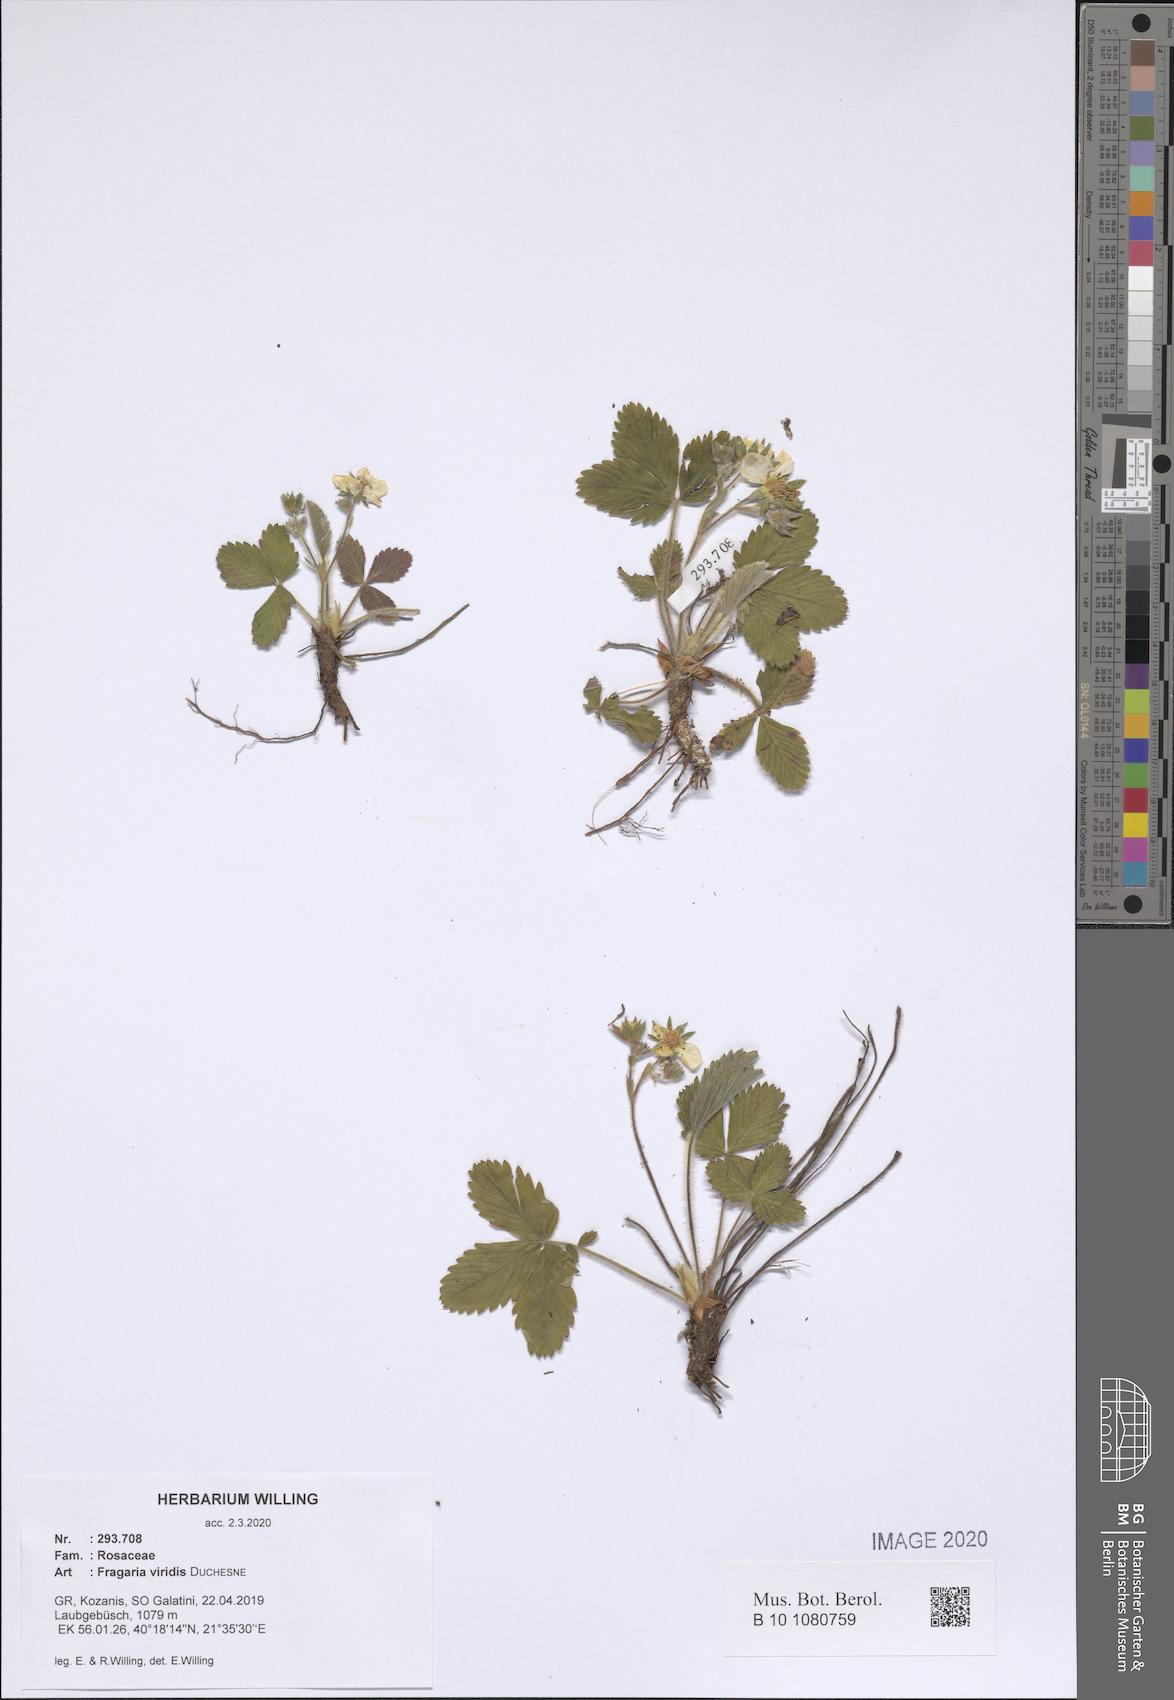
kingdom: Plantae
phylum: Tracheophyta
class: Magnoliopsida
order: Rosales
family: Rosaceae
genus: Fragaria
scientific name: Fragaria viridis
